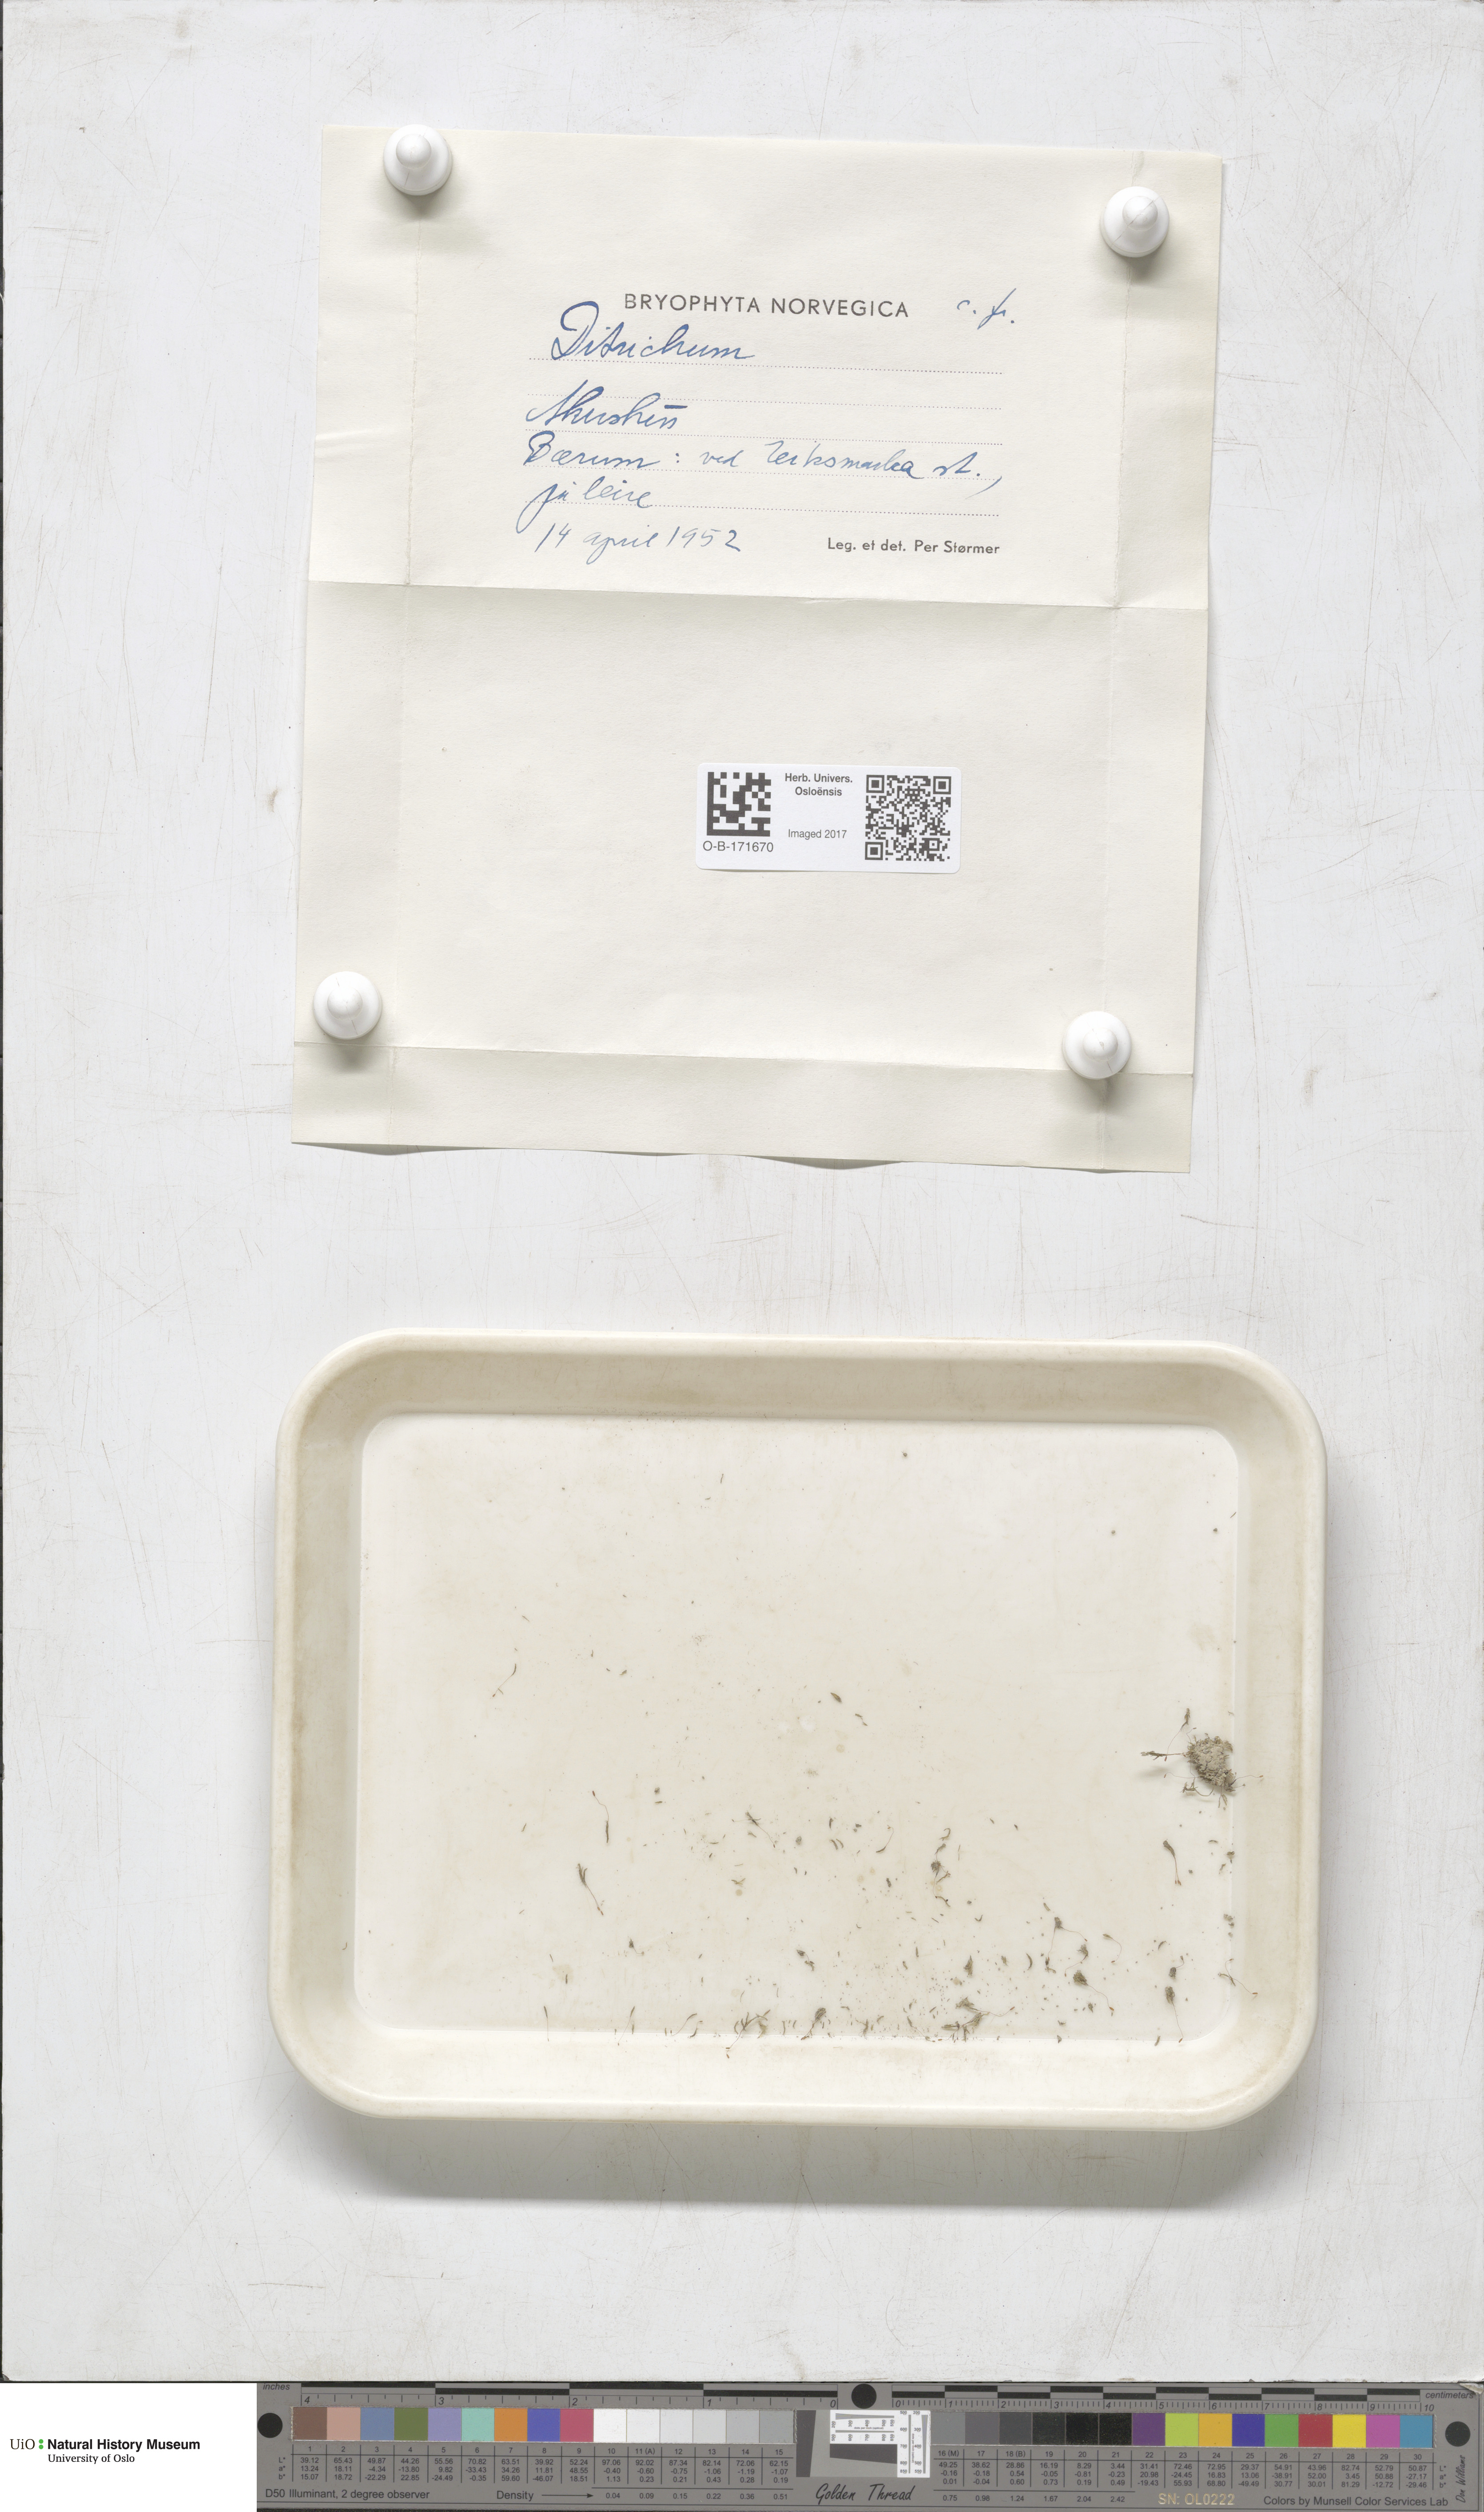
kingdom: Plantae
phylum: Bryophyta
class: Bryopsida
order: Dicranales
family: Ditrichaceae
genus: Ditrichum
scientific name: Ditrichum
